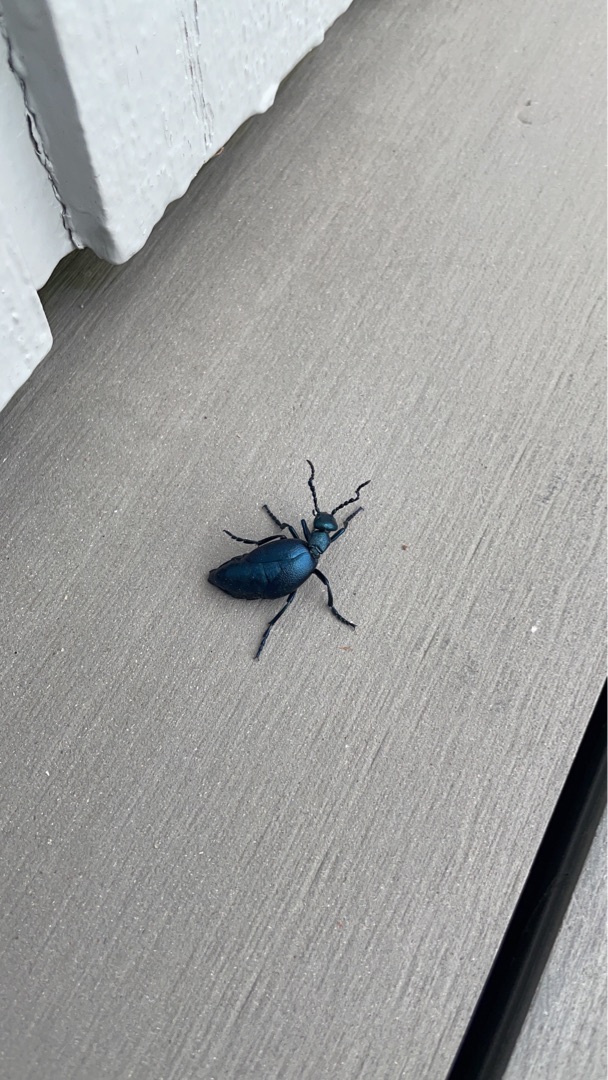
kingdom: Animalia
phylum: Arthropoda
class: Insecta
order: Coleoptera
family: Meloidae
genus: Meloe
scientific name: Meloe violaceus
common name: Blå oliebille
